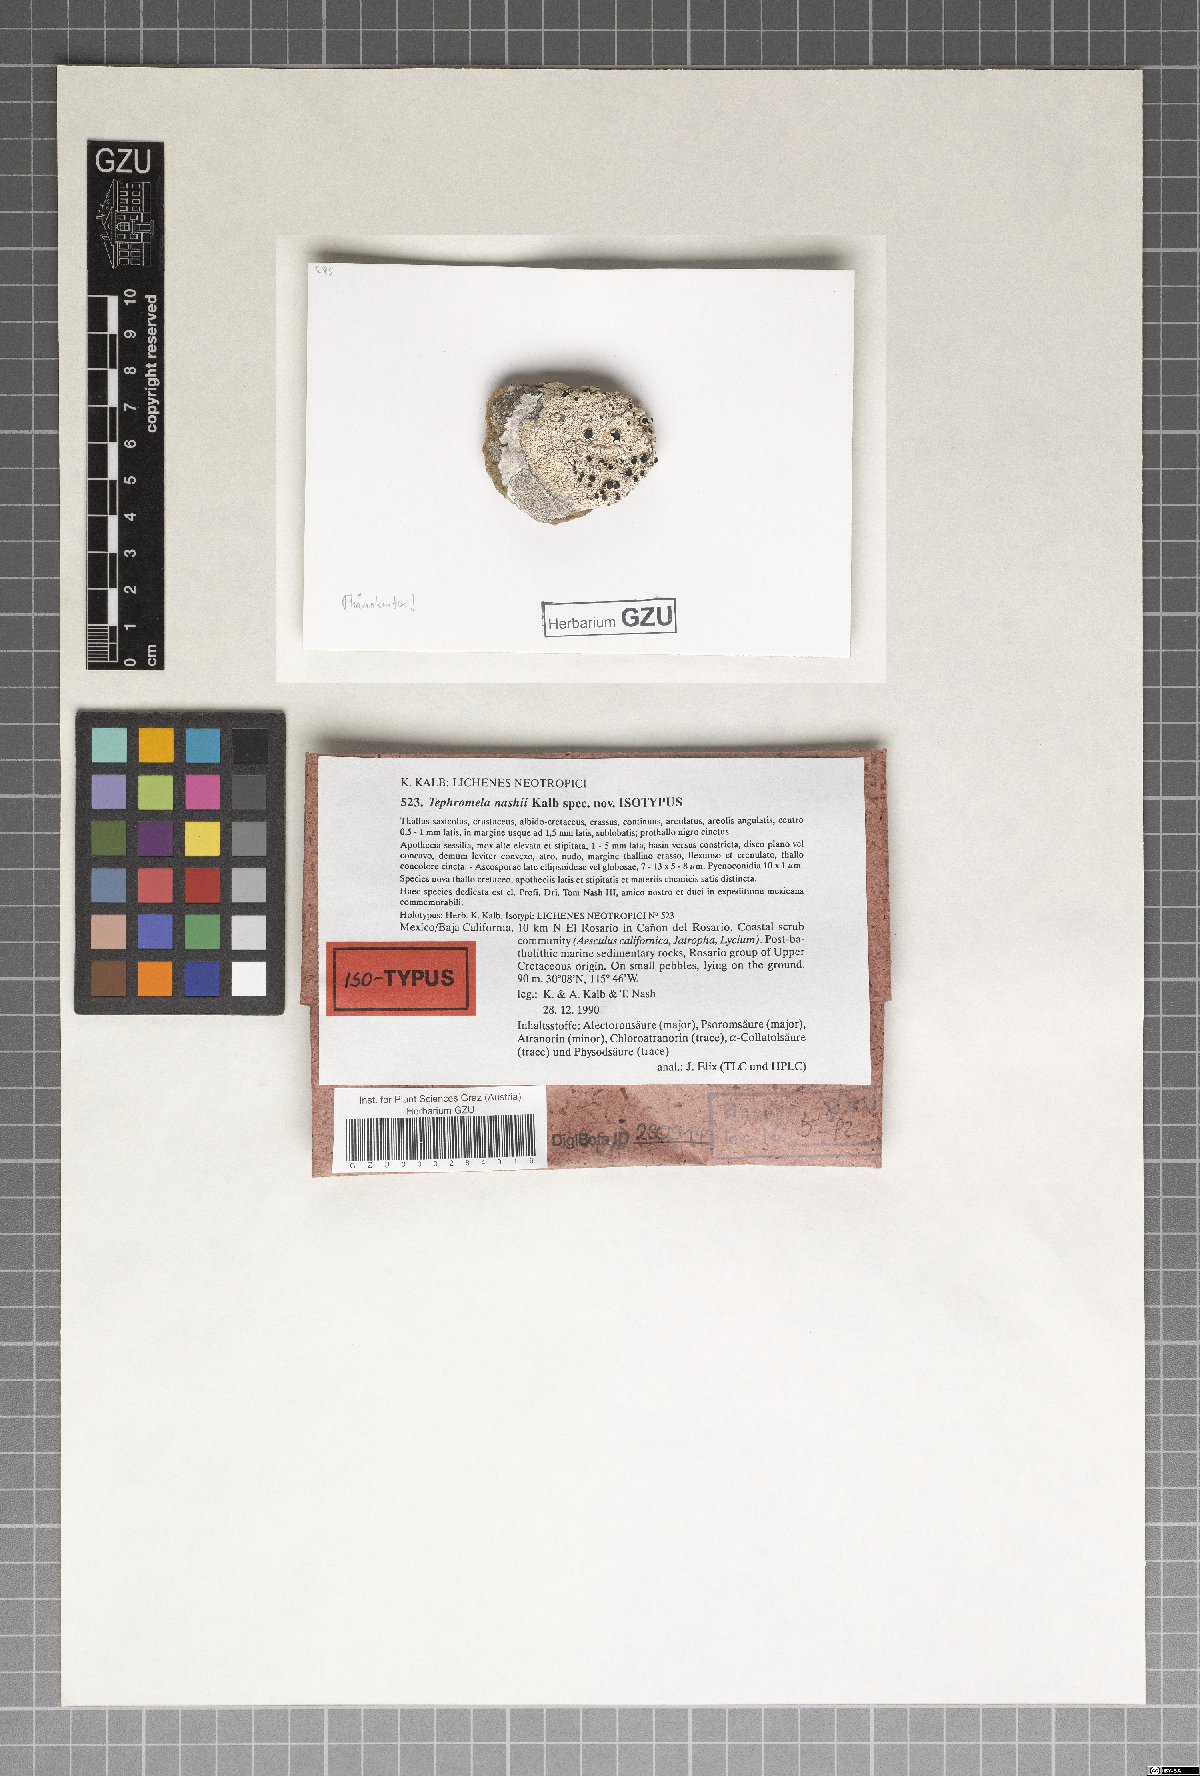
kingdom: Fungi
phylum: Ascomycota
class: Lecanoromycetes
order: Lecanorales
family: Tephromelataceae
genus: Tephromela
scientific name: Tephromela nashii
